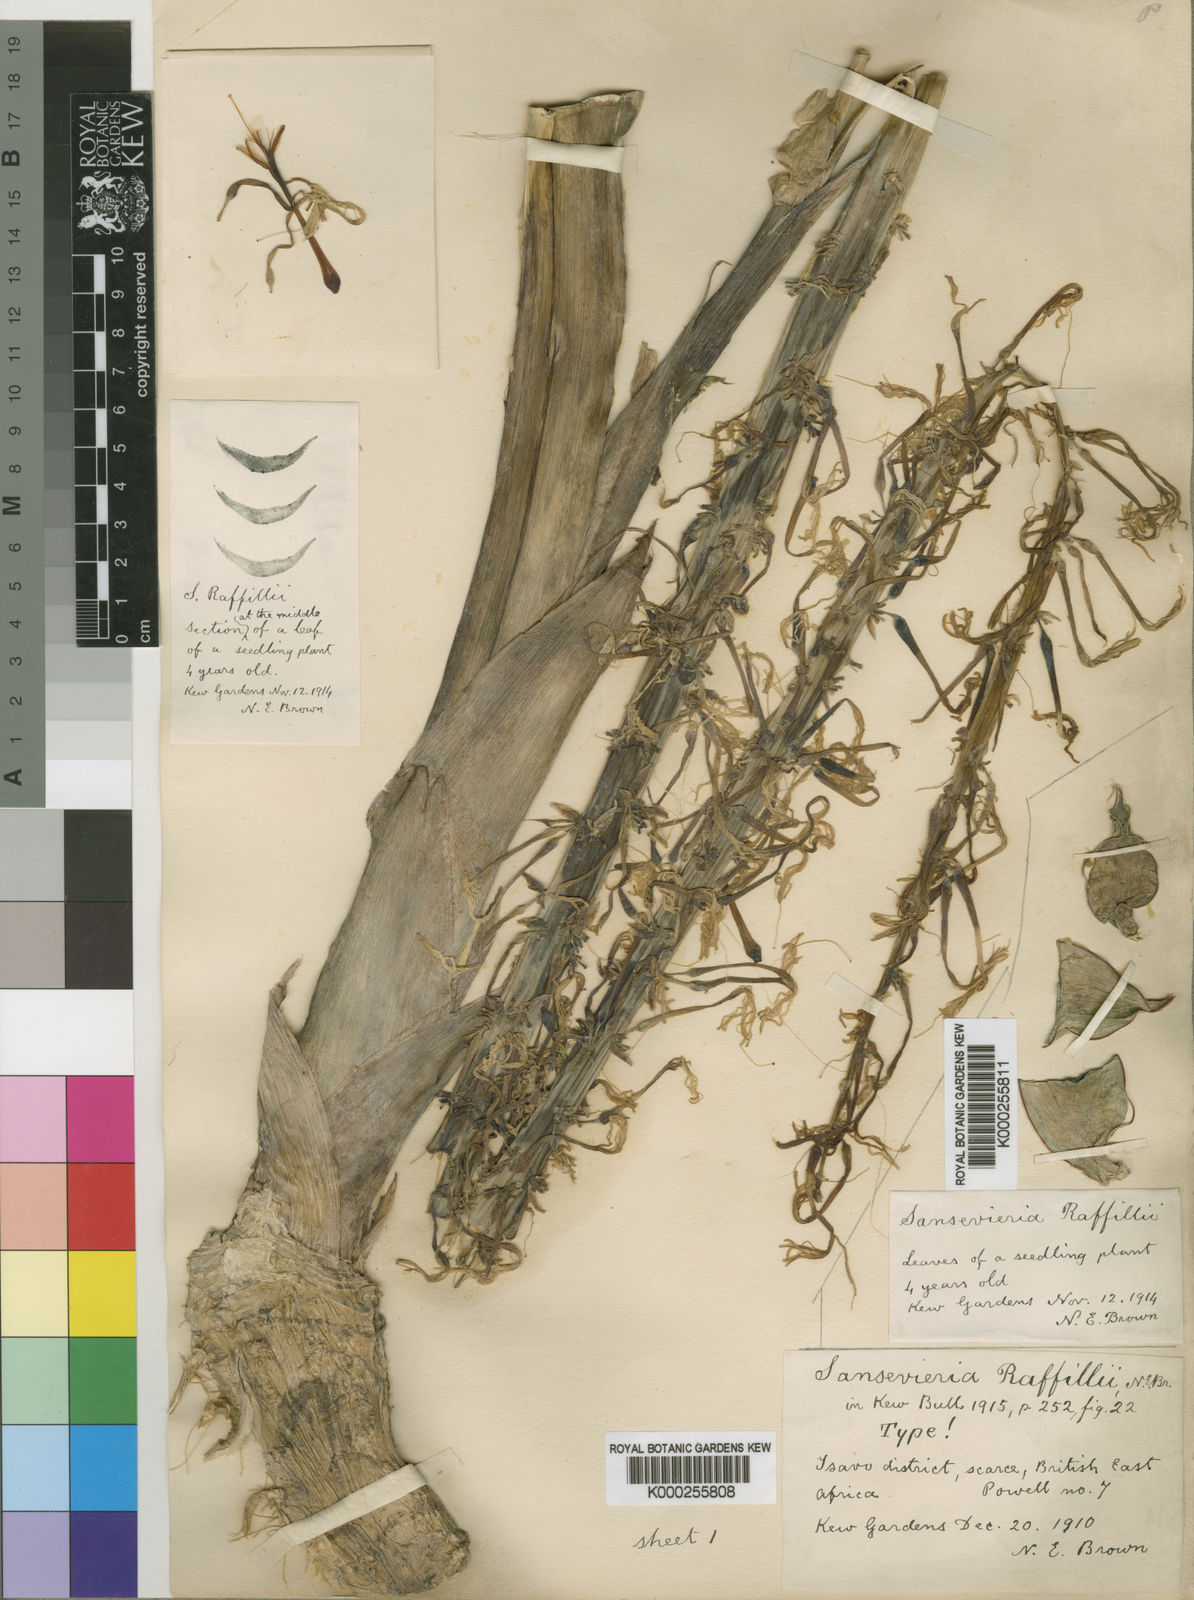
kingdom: Plantae
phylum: Tracheophyta
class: Liliopsida
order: Asparagales
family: Asparagaceae
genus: Dracaena
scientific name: Dracaena raffillii
